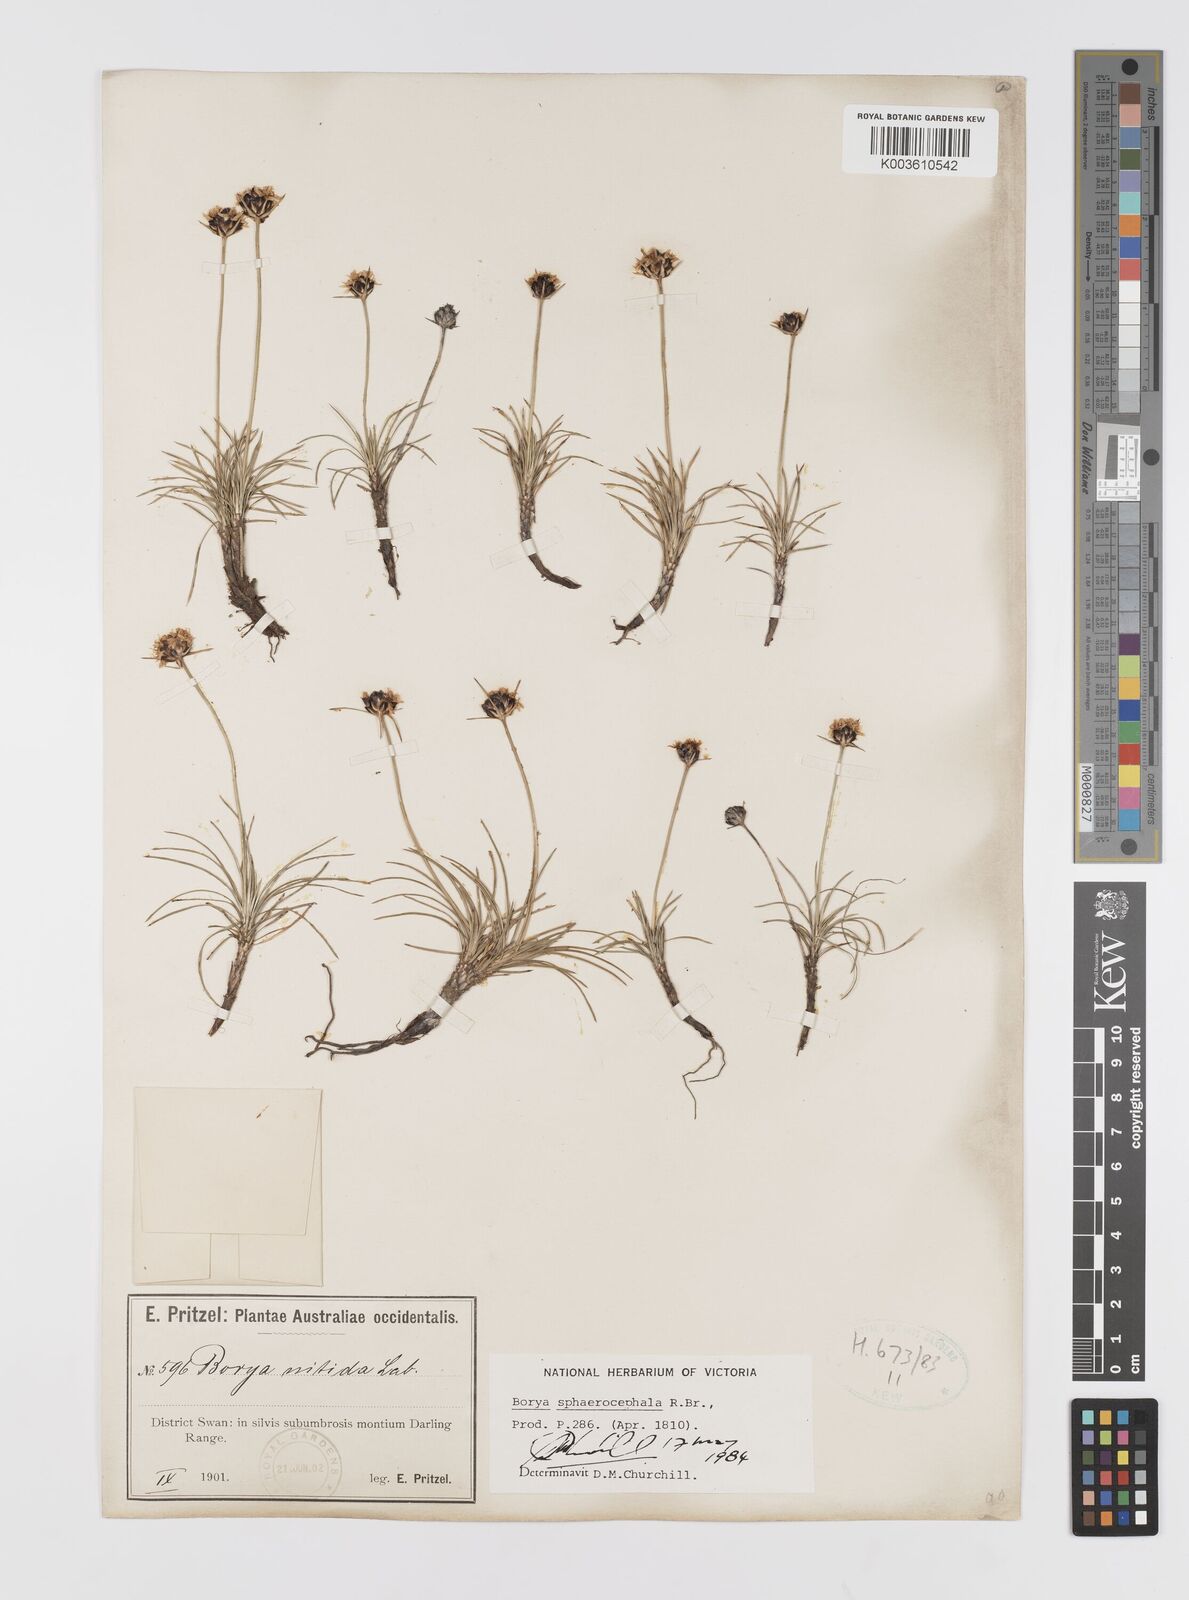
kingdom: Plantae
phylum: Tracheophyta
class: Liliopsida
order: Asparagales
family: Boryaceae
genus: Borya
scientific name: Borya sphaerocephala
